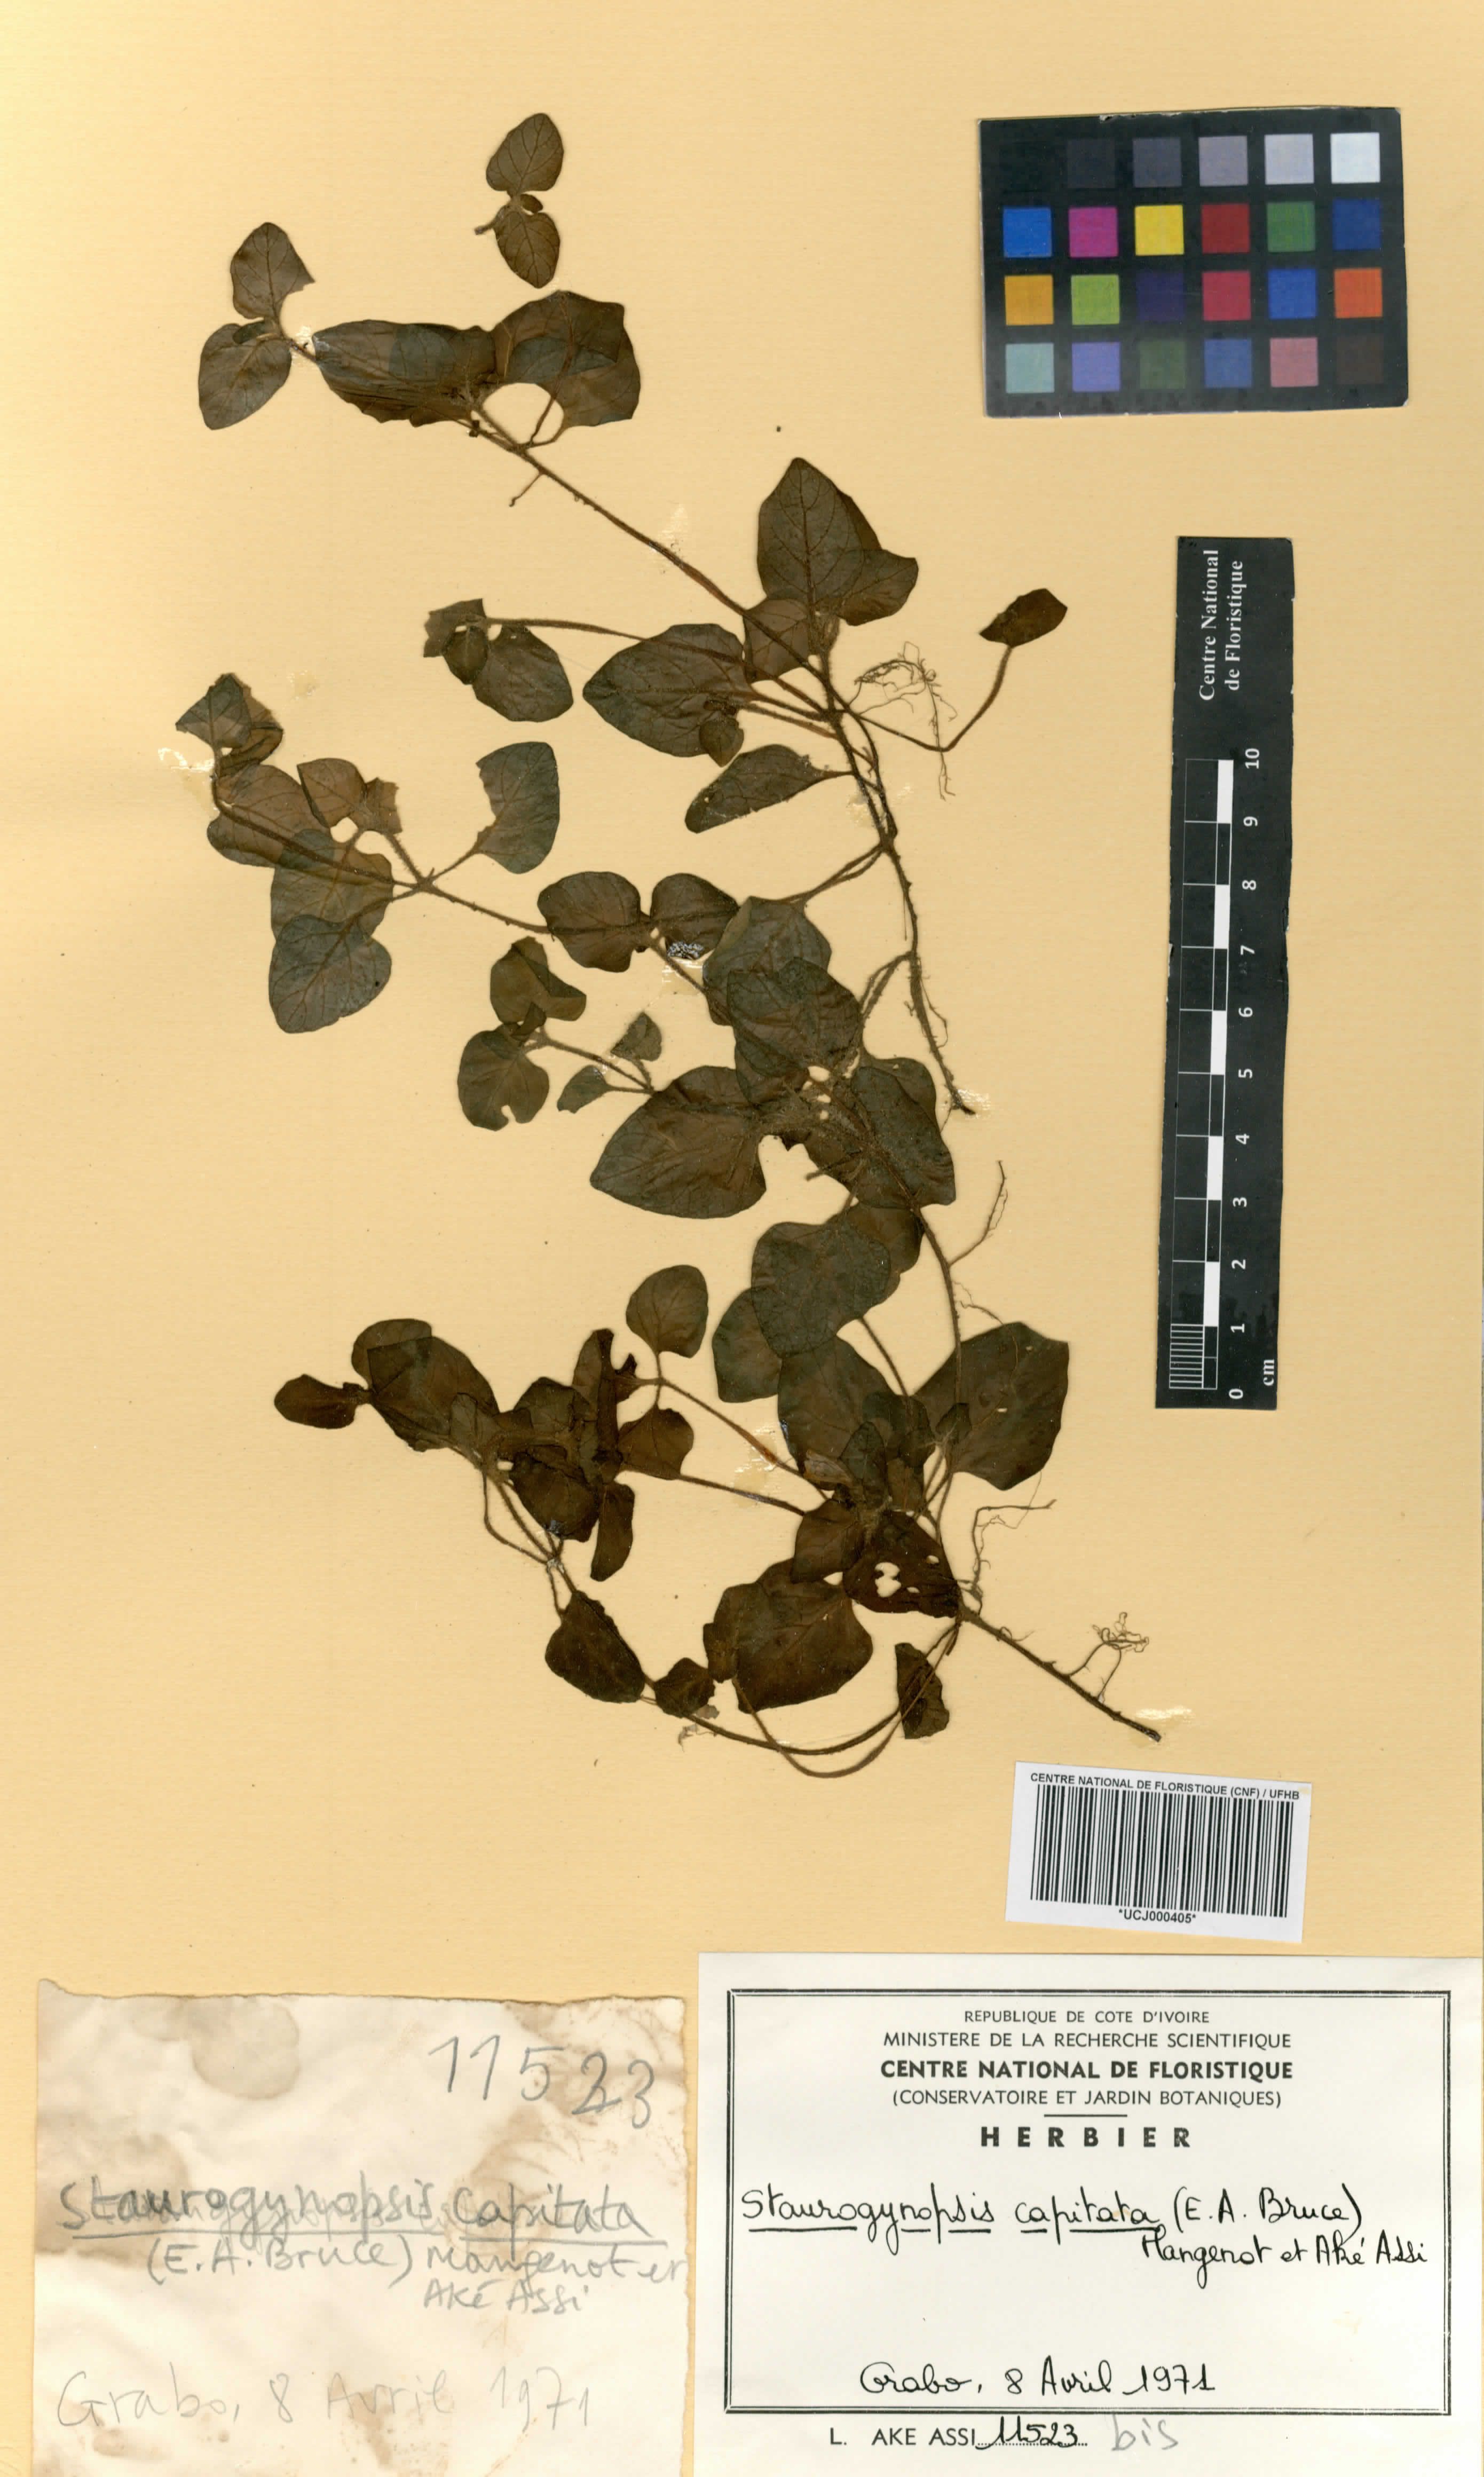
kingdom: Plantae
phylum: Tracheophyta
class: Magnoliopsida
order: Lamiales
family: Acanthaceae
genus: Staurogyne
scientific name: Staurogyne capitata
